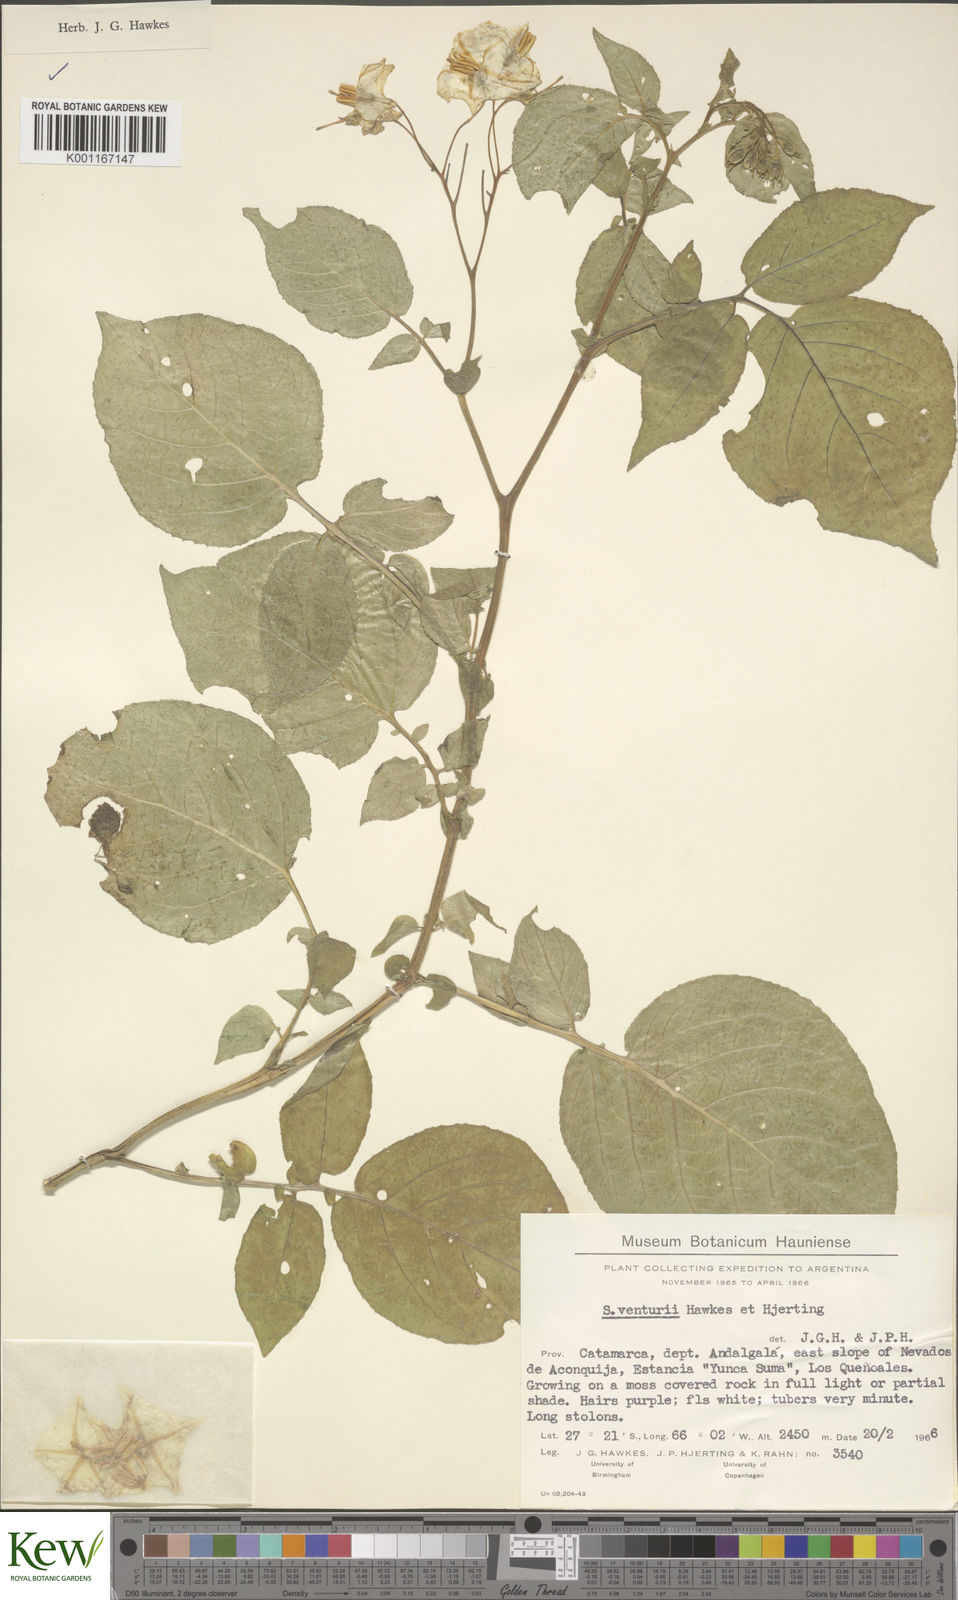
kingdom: Plantae
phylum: Tracheophyta
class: Magnoliopsida
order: Solanales
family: Solanaceae
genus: Solanum
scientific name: Solanum venturii
